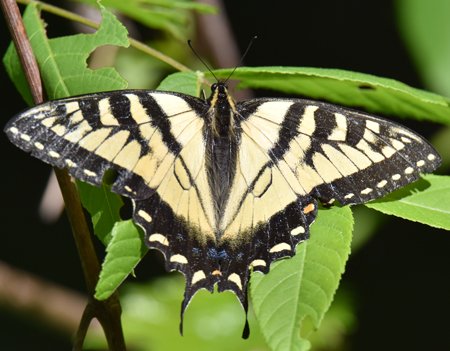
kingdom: Animalia
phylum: Arthropoda
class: Insecta
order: Lepidoptera
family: Papilionidae
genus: Pterourus
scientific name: Pterourus glaucus
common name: Eastern Tiger Swallowtail
